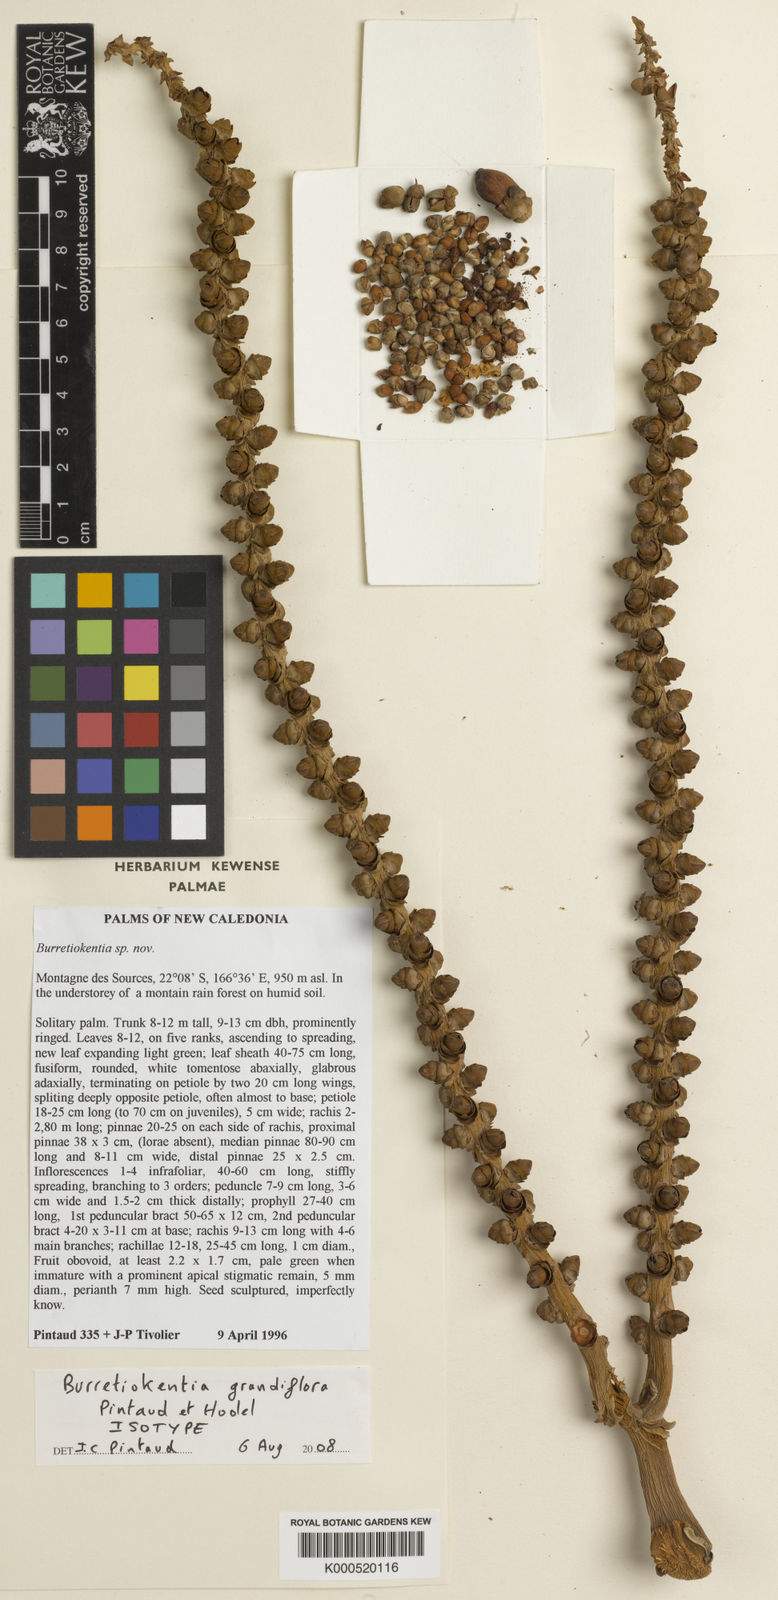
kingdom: Plantae
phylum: Tracheophyta
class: Liliopsida
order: Arecales
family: Arecaceae
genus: Burretiokentia
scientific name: Burretiokentia grandiflora
